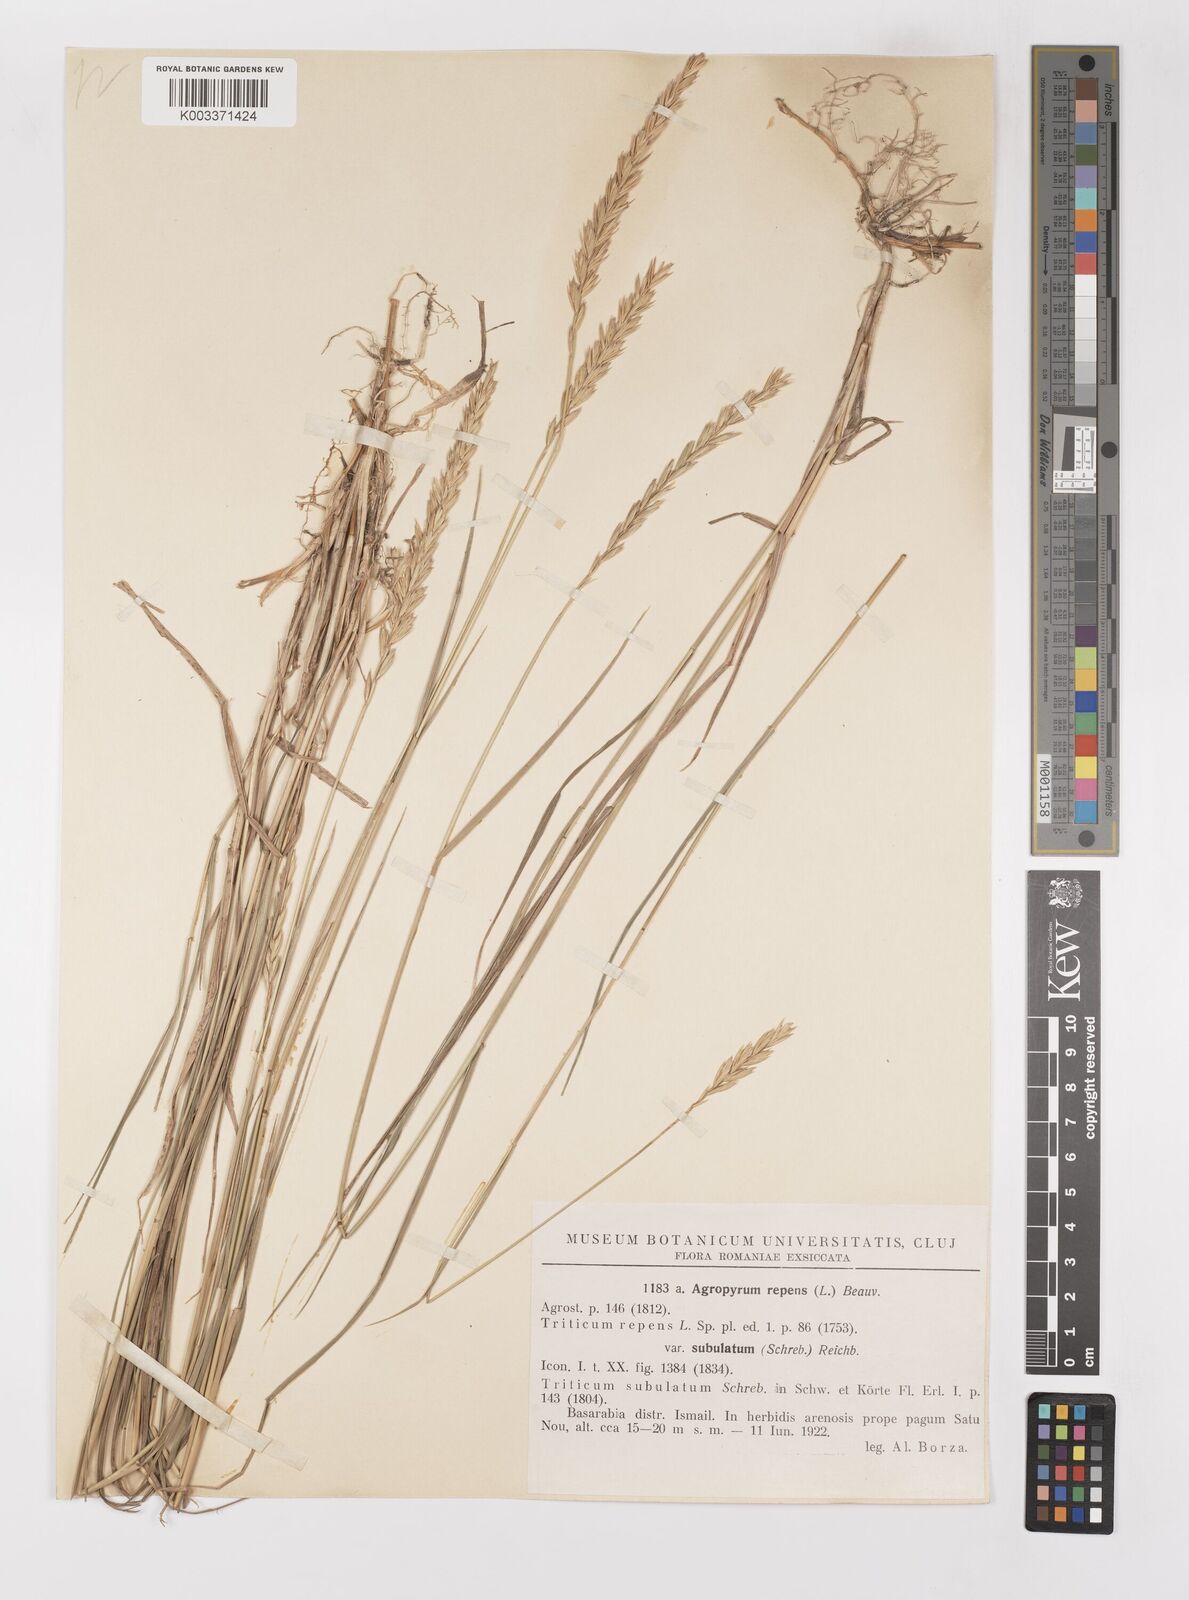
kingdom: Plantae
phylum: Tracheophyta
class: Liliopsida
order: Poales
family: Poaceae
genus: Elymus
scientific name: Elymus repens
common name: Quackgrass
